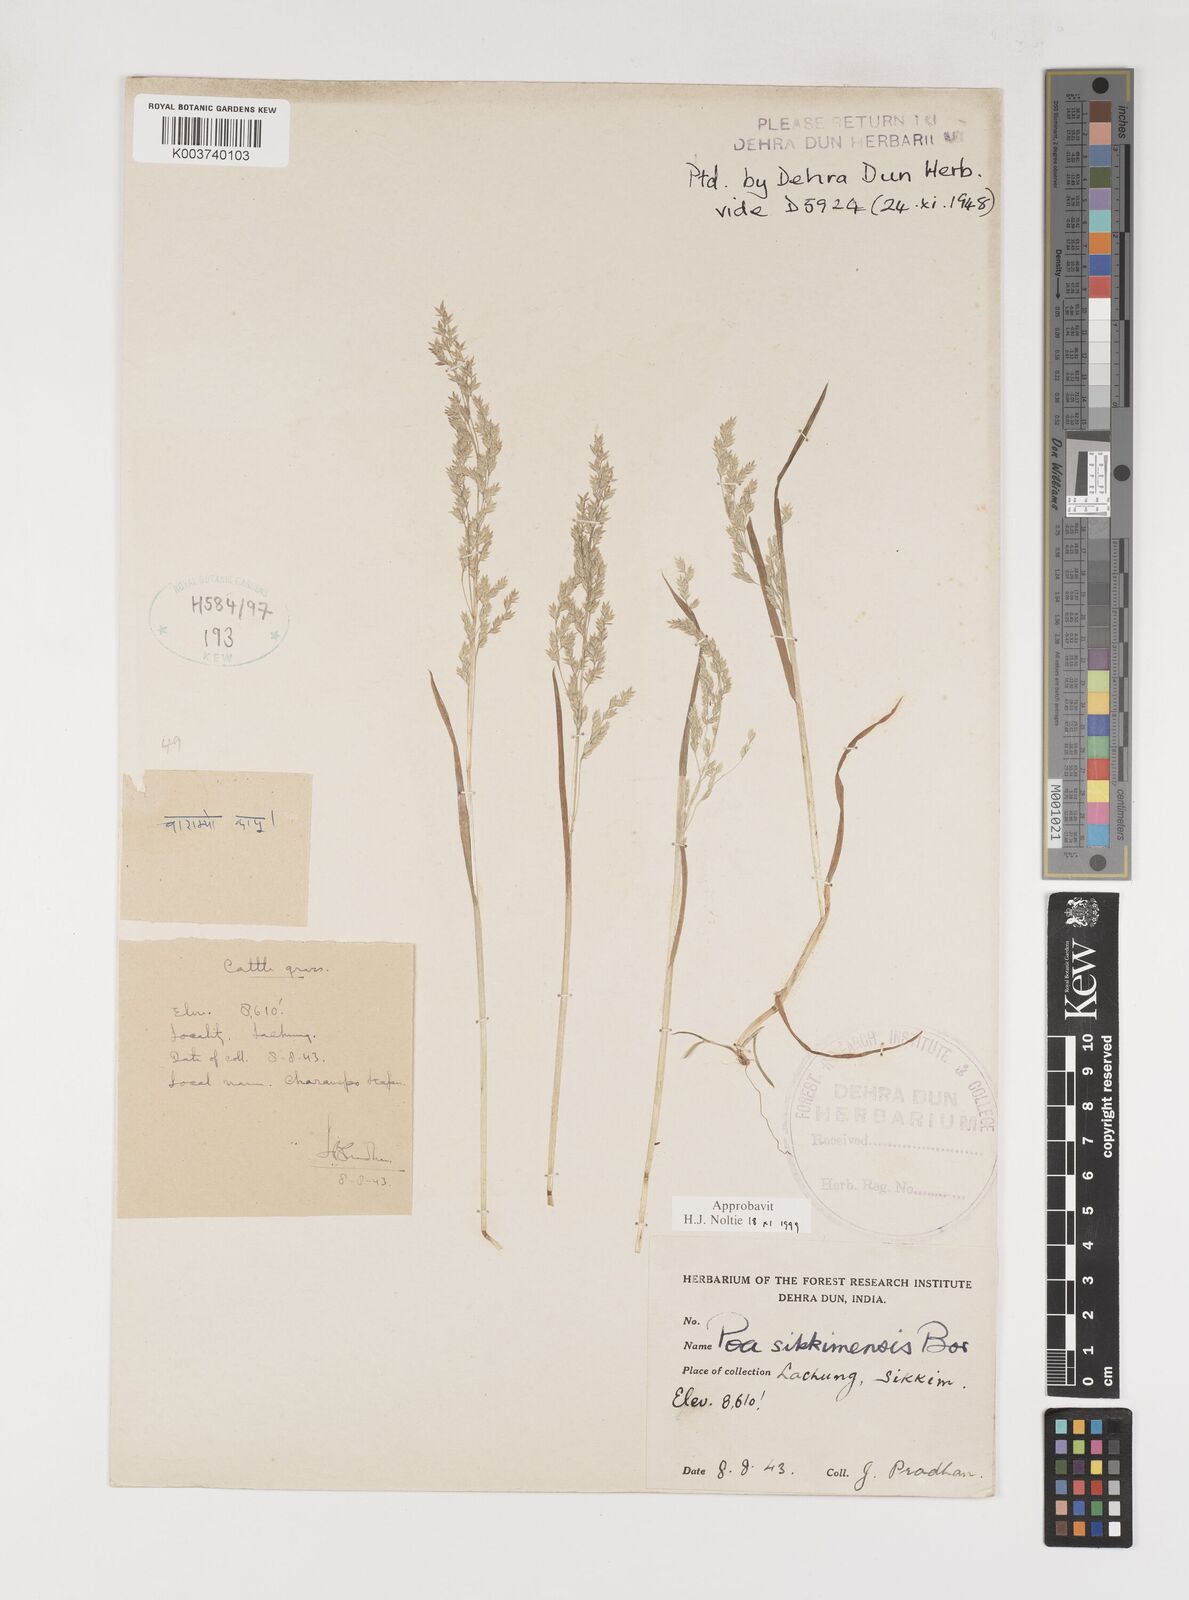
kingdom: Plantae
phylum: Tracheophyta
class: Liliopsida
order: Poales
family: Poaceae
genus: Poa
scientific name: Poa sikkimensis
